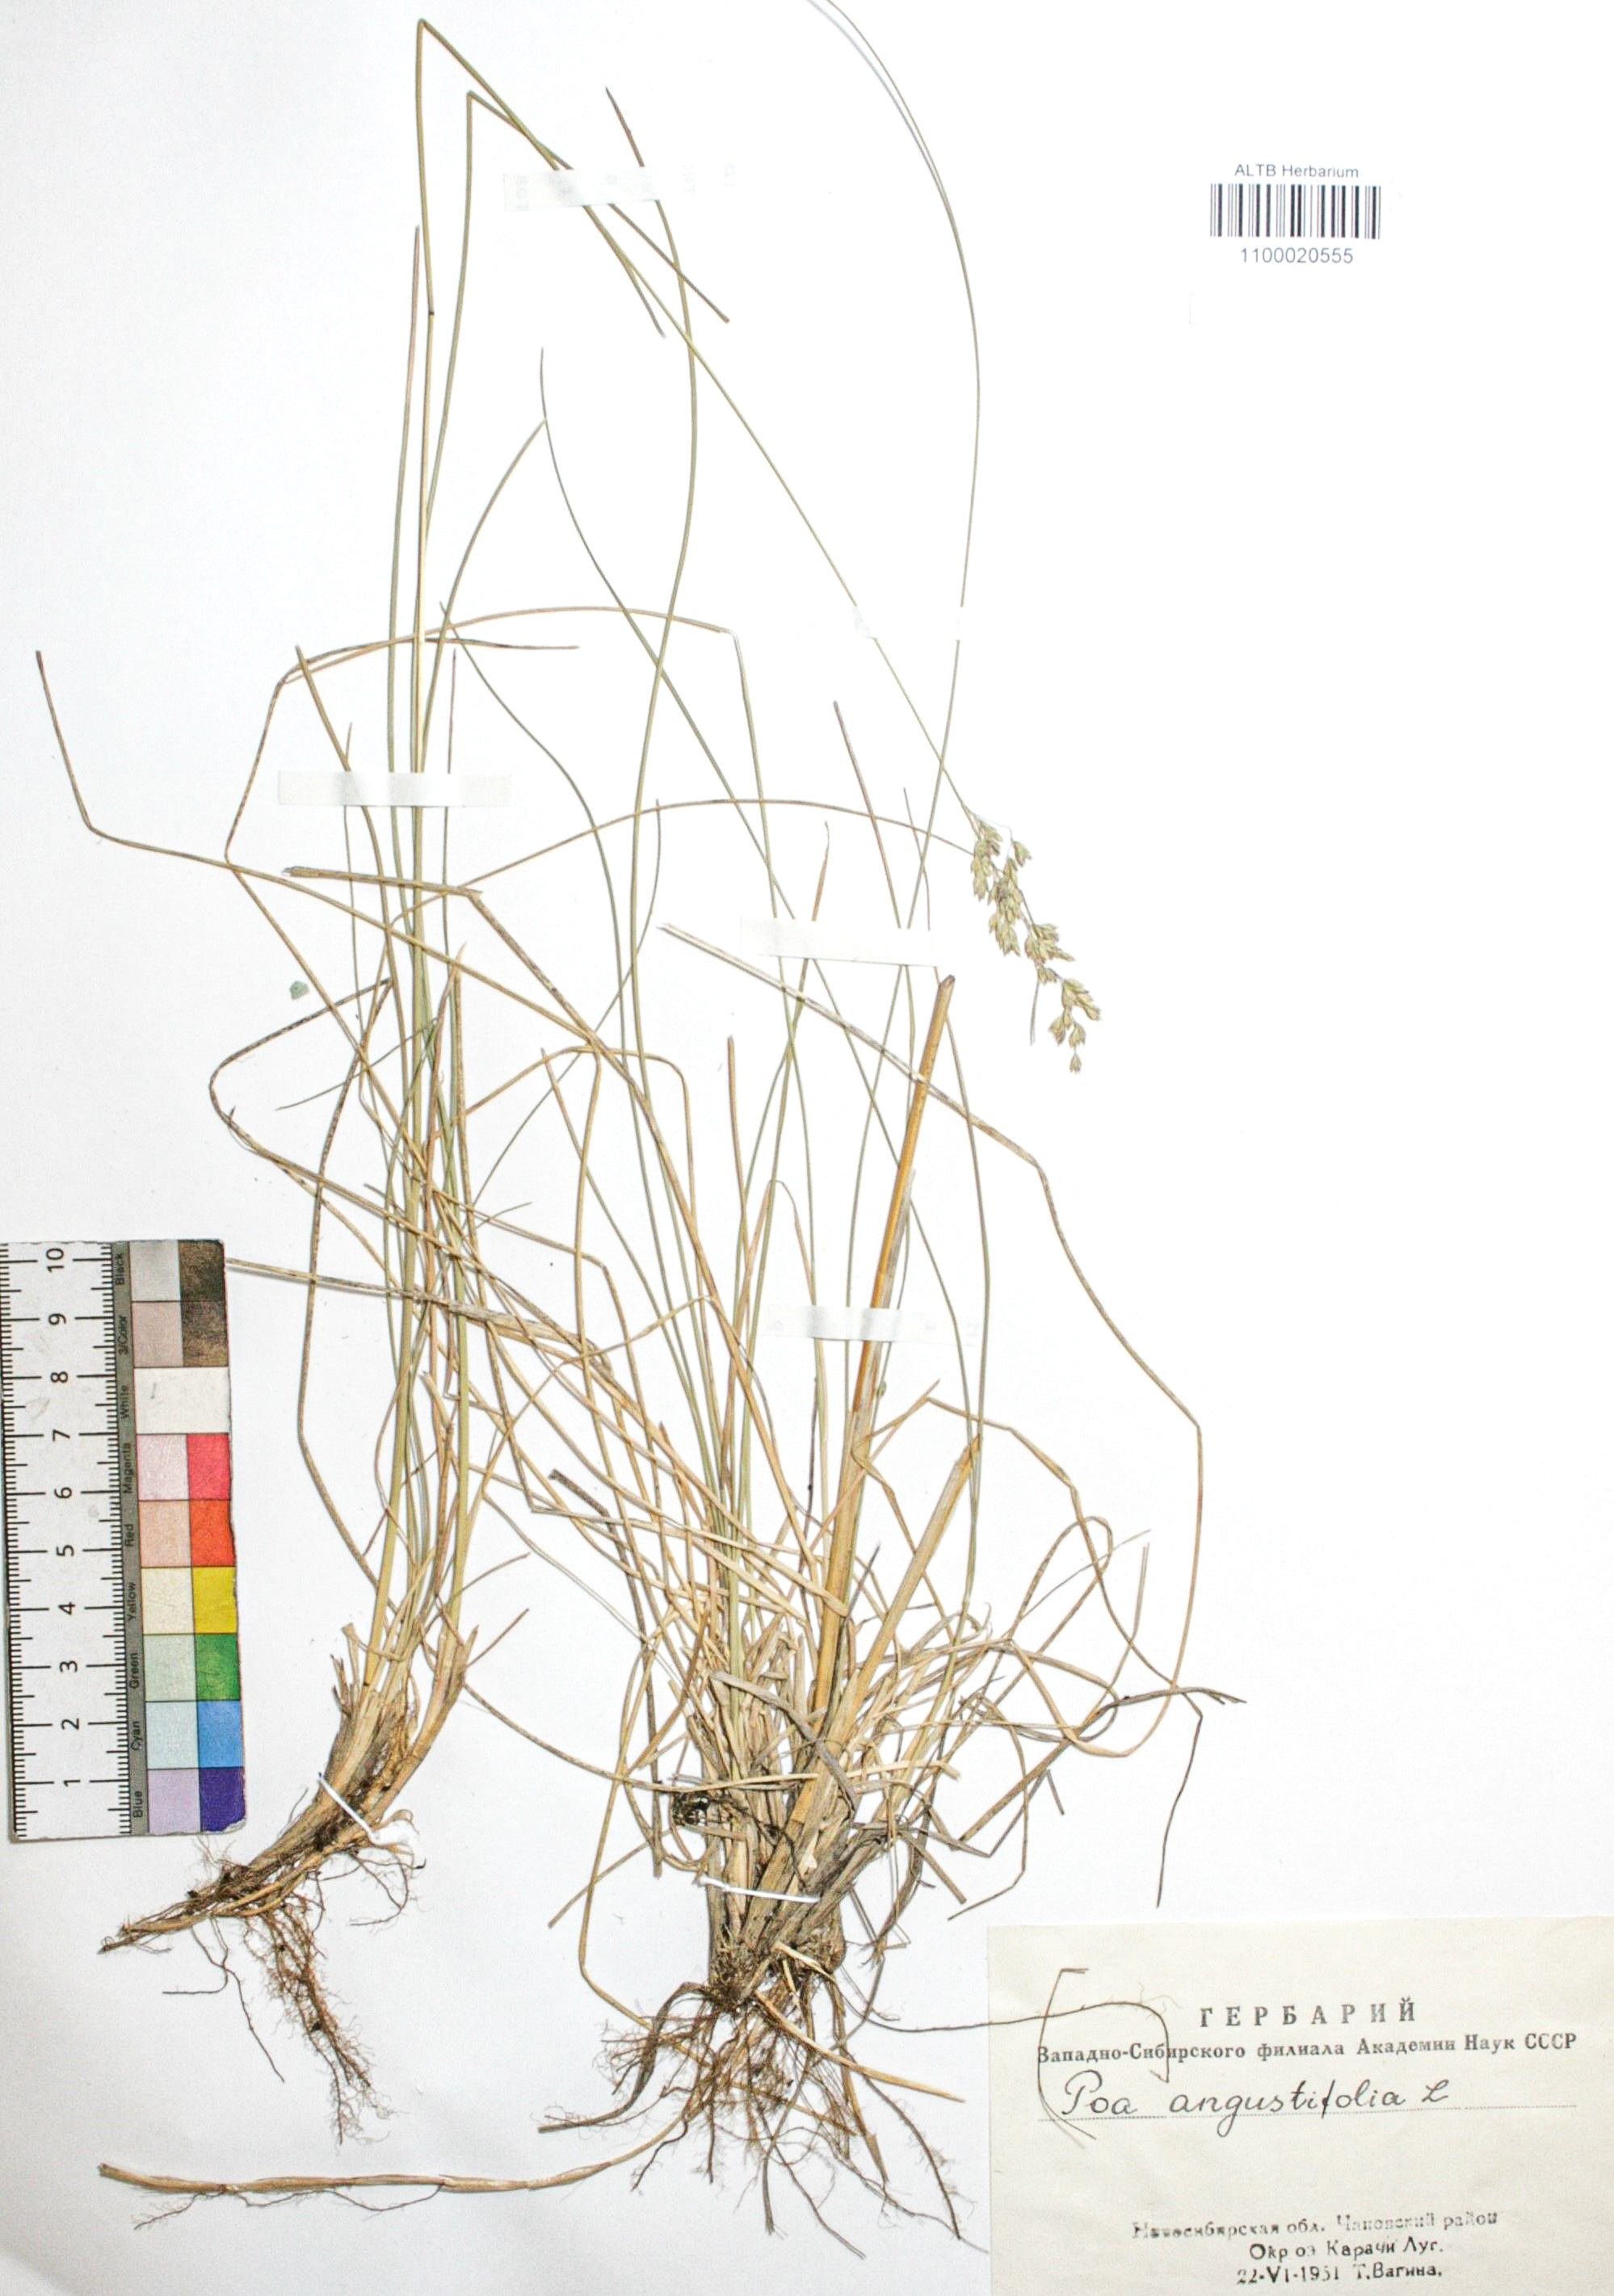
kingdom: Plantae
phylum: Tracheophyta
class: Liliopsida
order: Poales
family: Poaceae
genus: Poa
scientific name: Poa angustifolia
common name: Narrow-leaved meadow-grass
